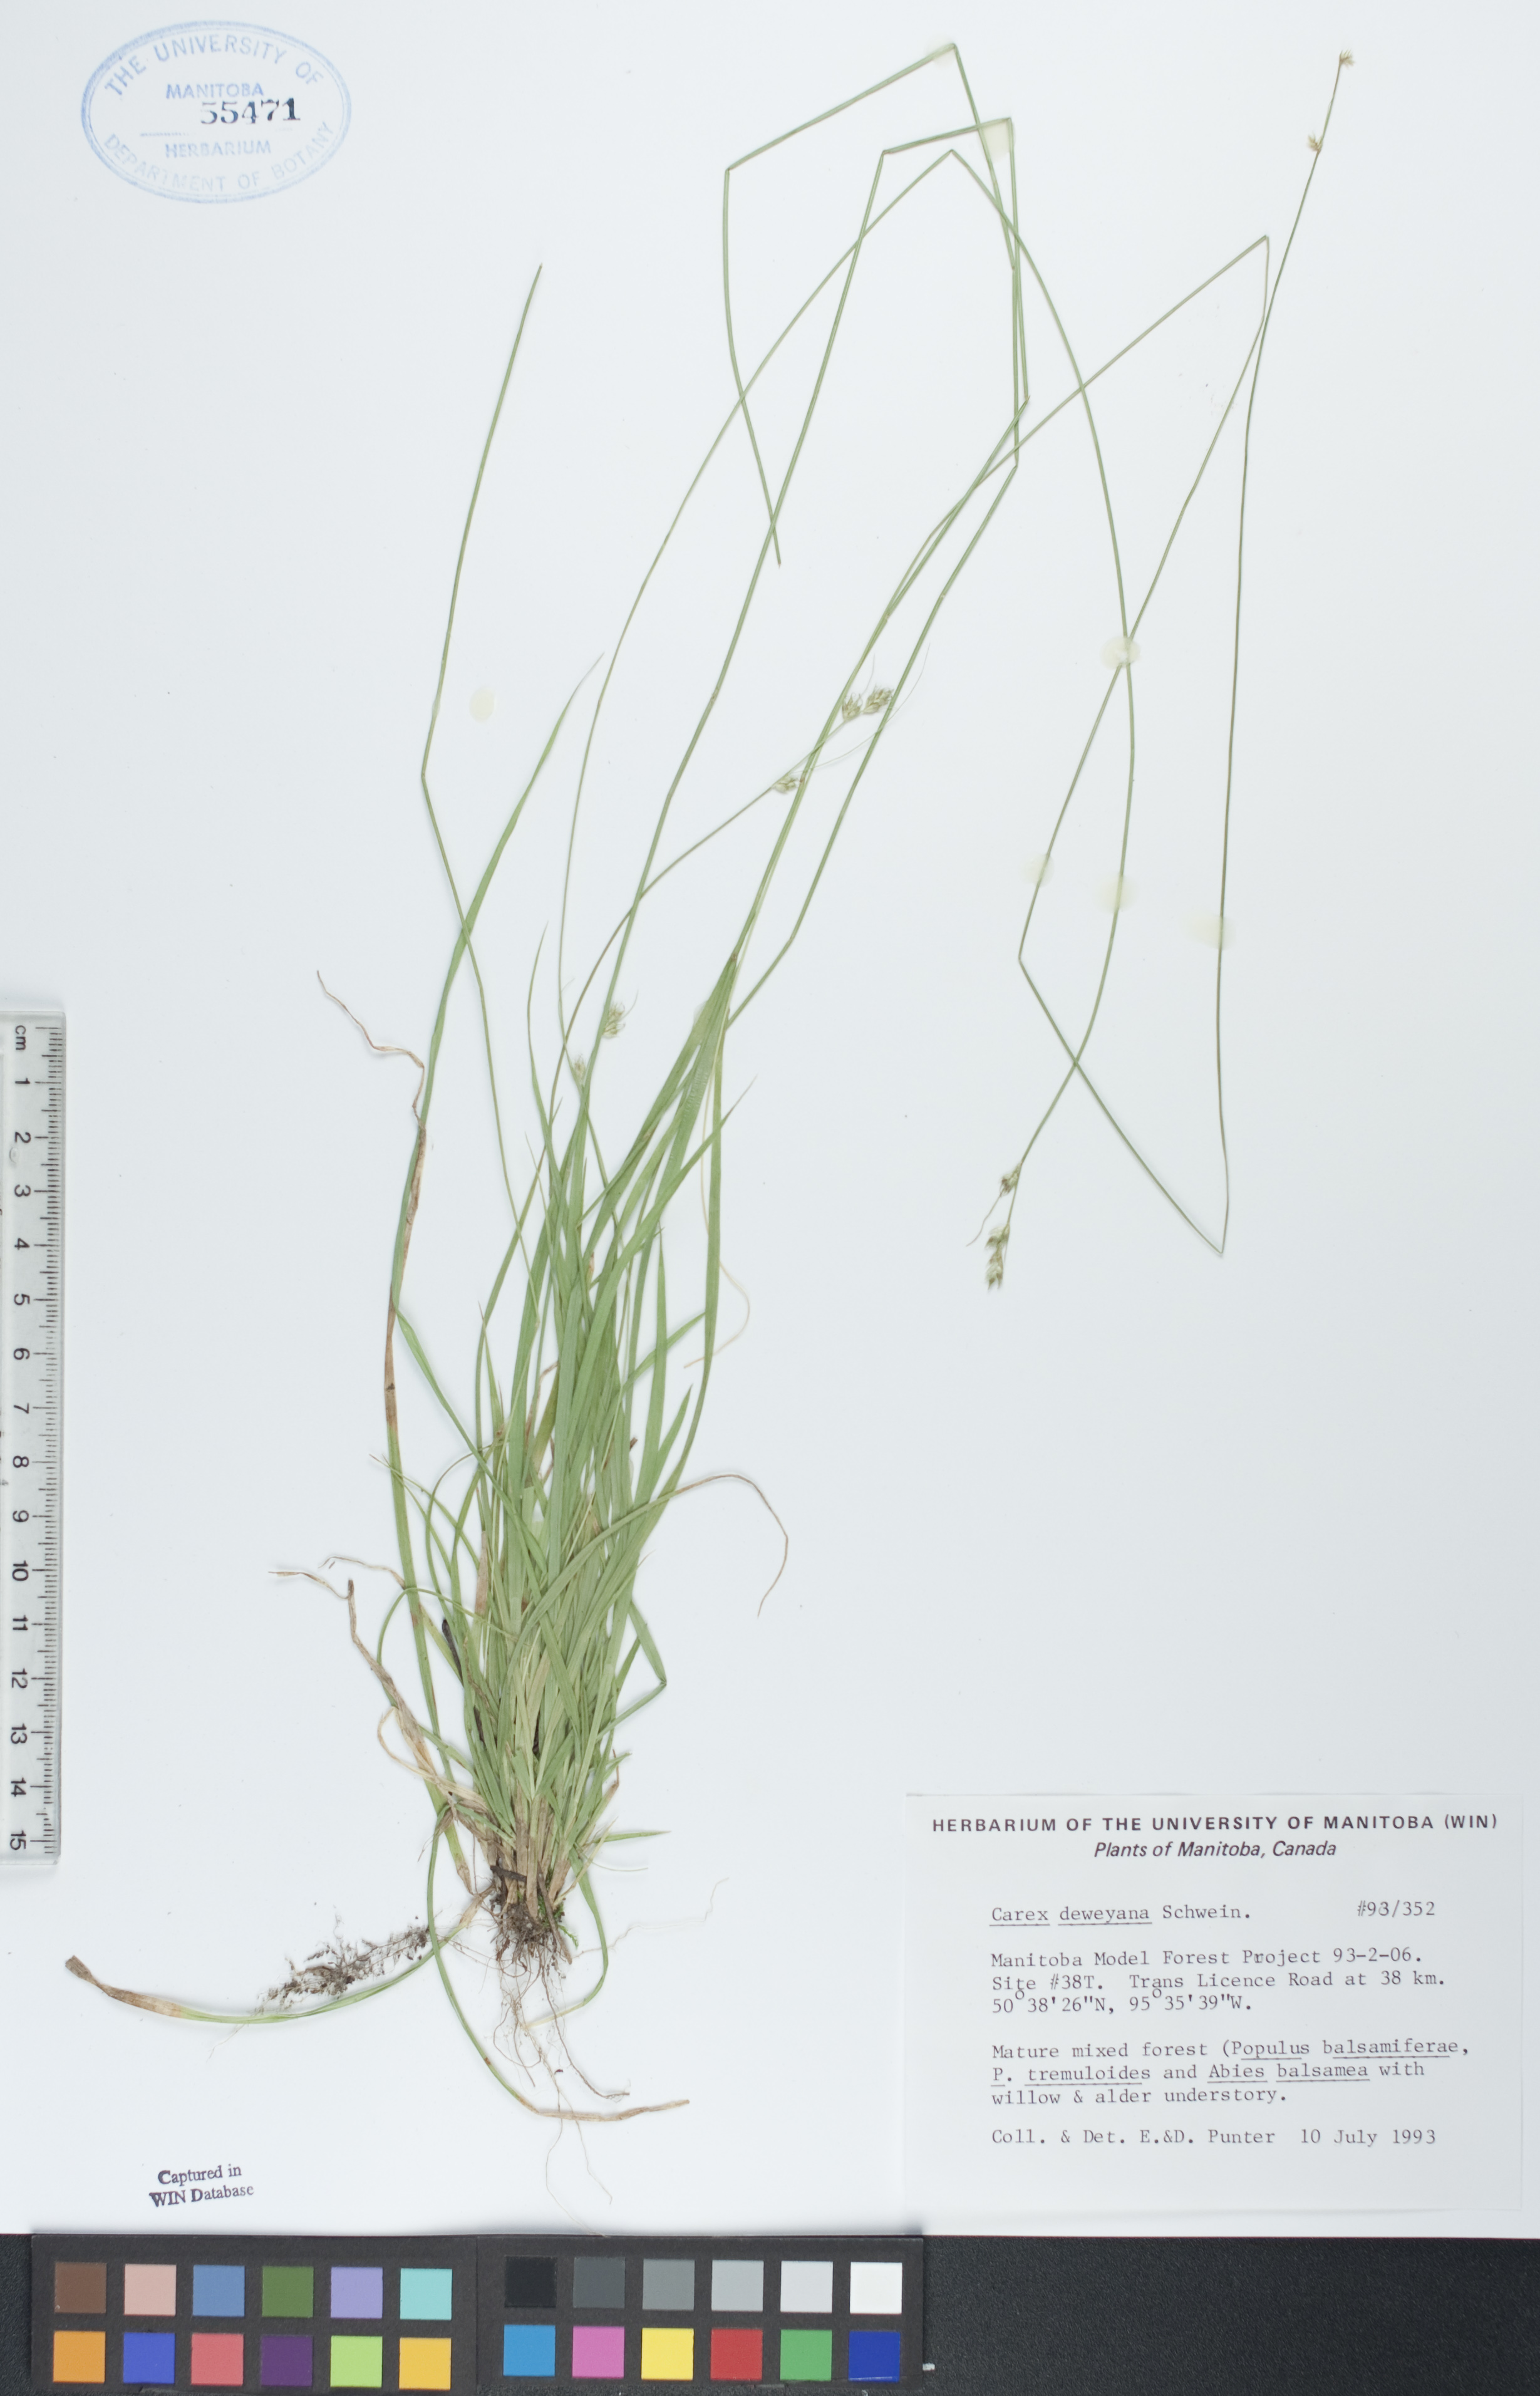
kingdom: Plantae
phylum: Tracheophyta
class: Liliopsida
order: Poales
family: Cyperaceae
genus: Carex
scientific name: Carex deweyana
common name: Dewey's sedge
